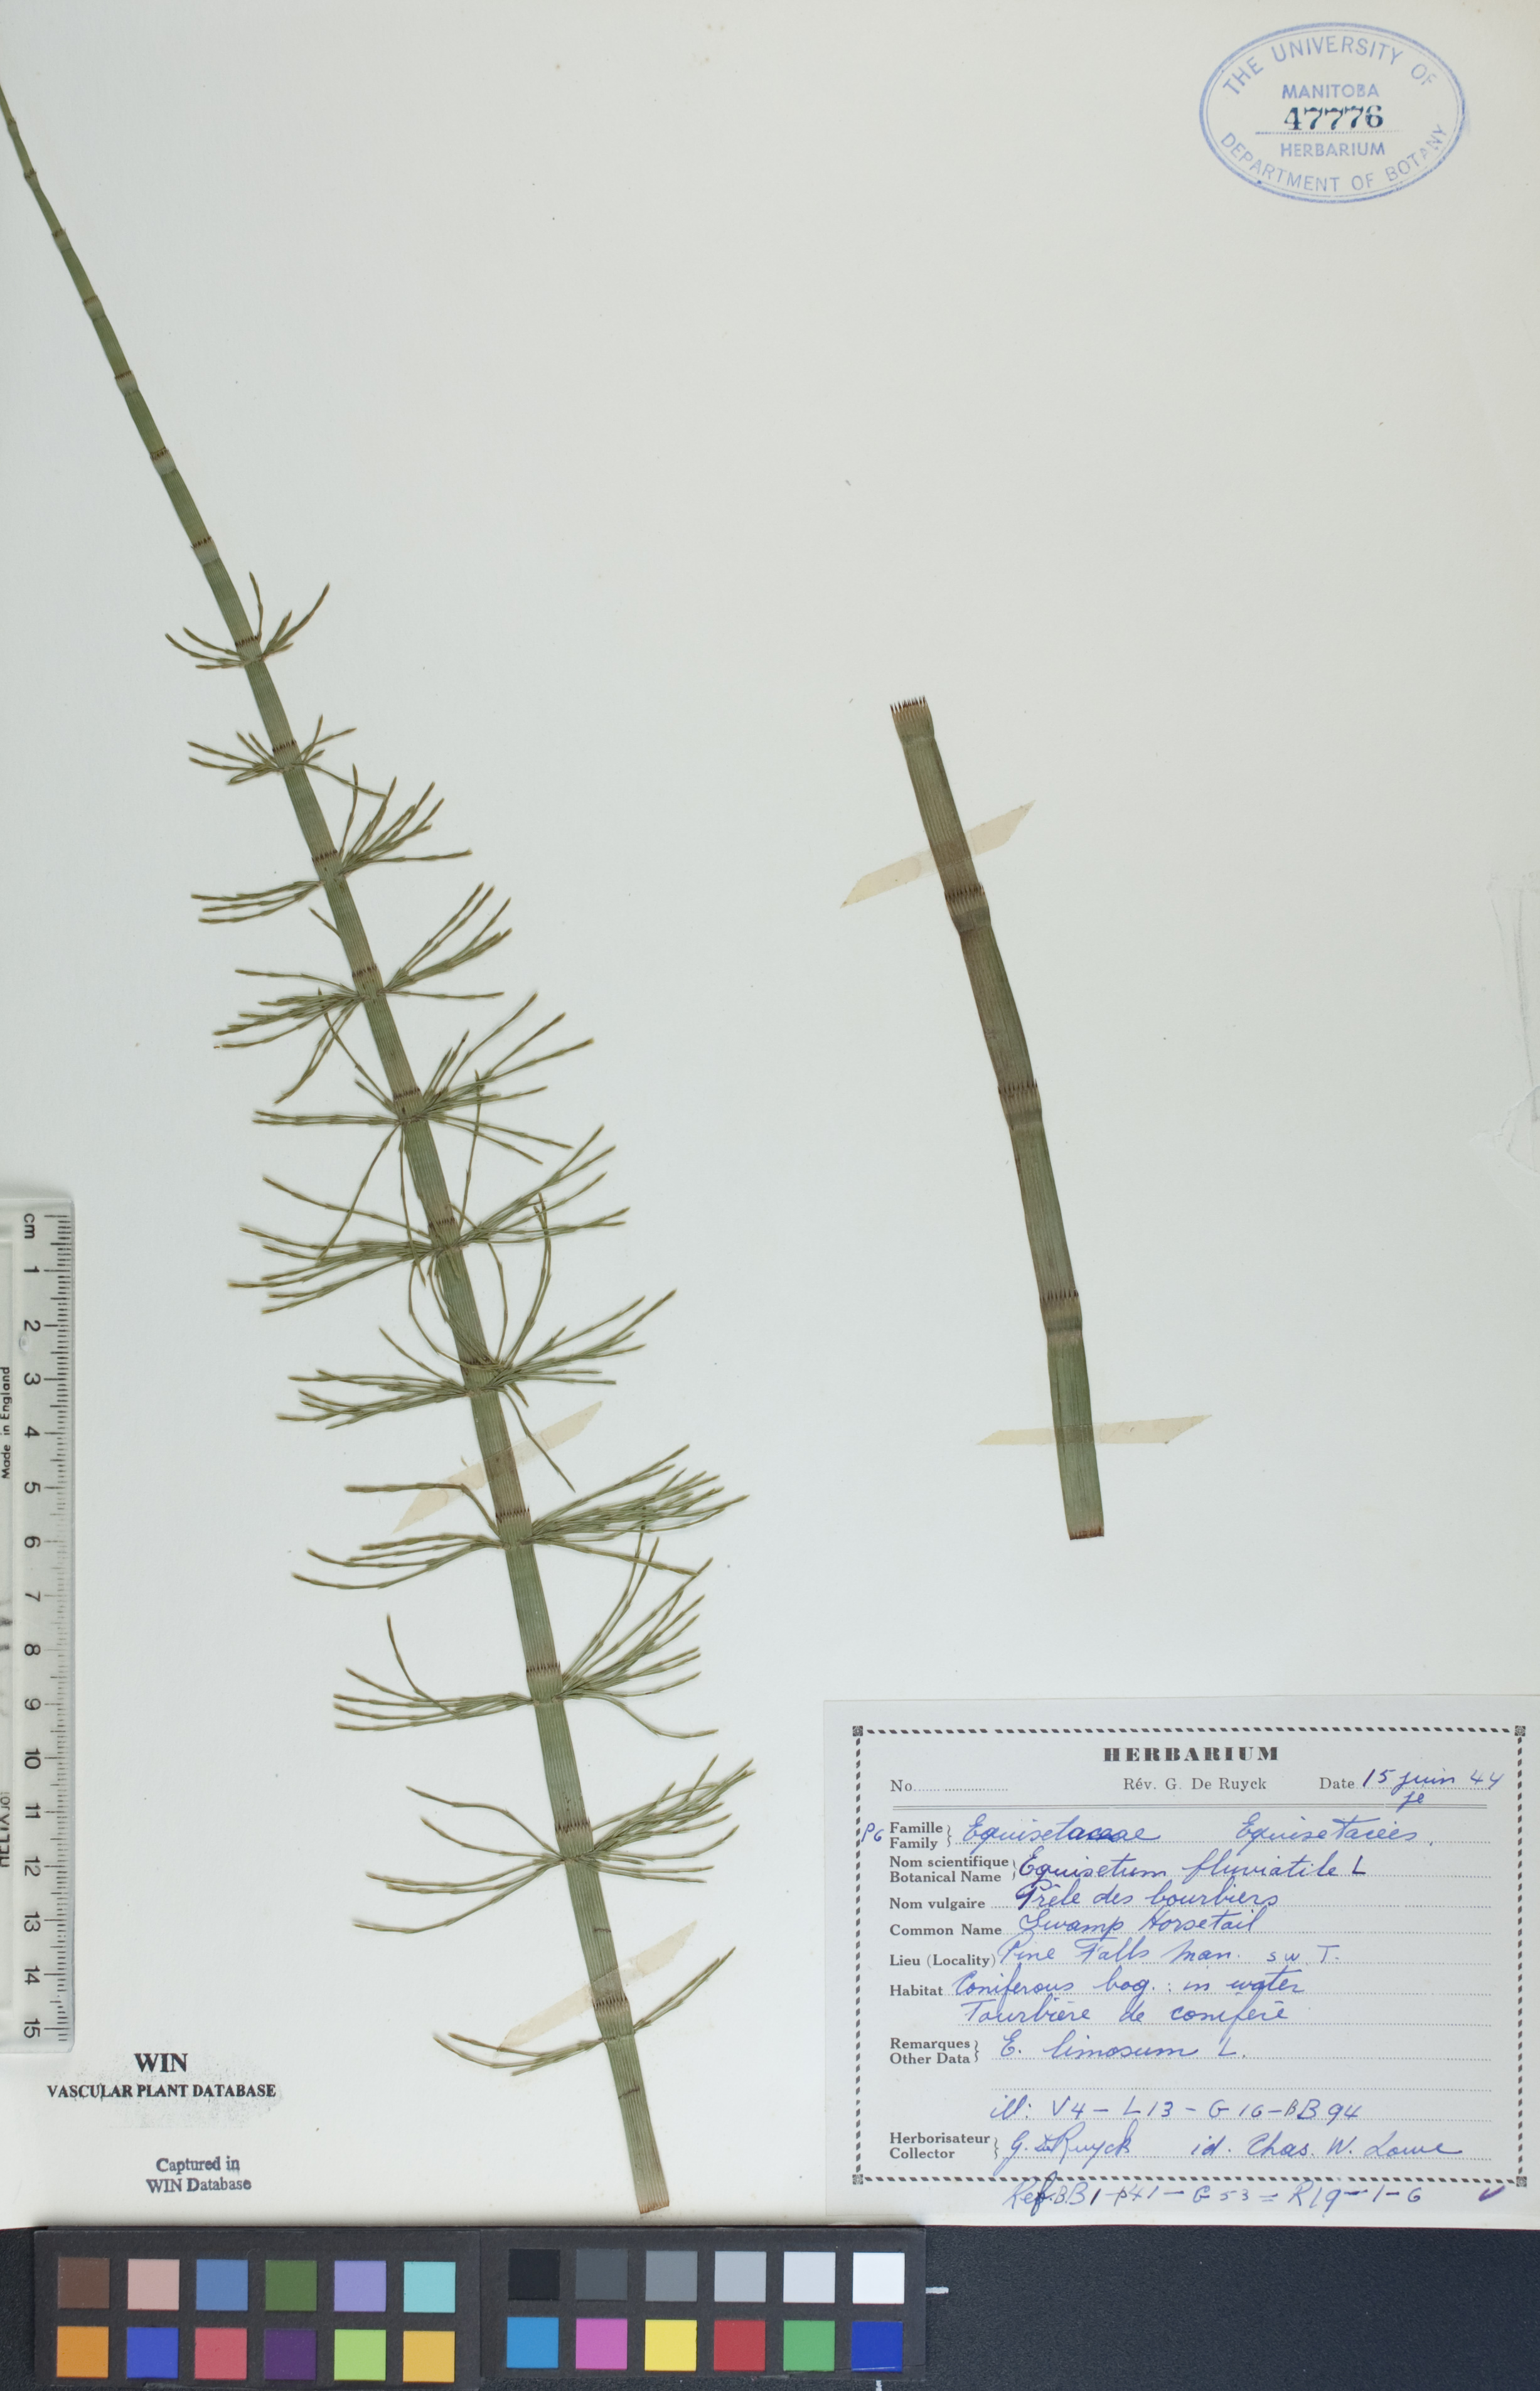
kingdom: Plantae
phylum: Tracheophyta
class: Polypodiopsida
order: Equisetales
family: Equisetaceae
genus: Equisetum
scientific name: Equisetum fluviatile
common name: Water horsetail
